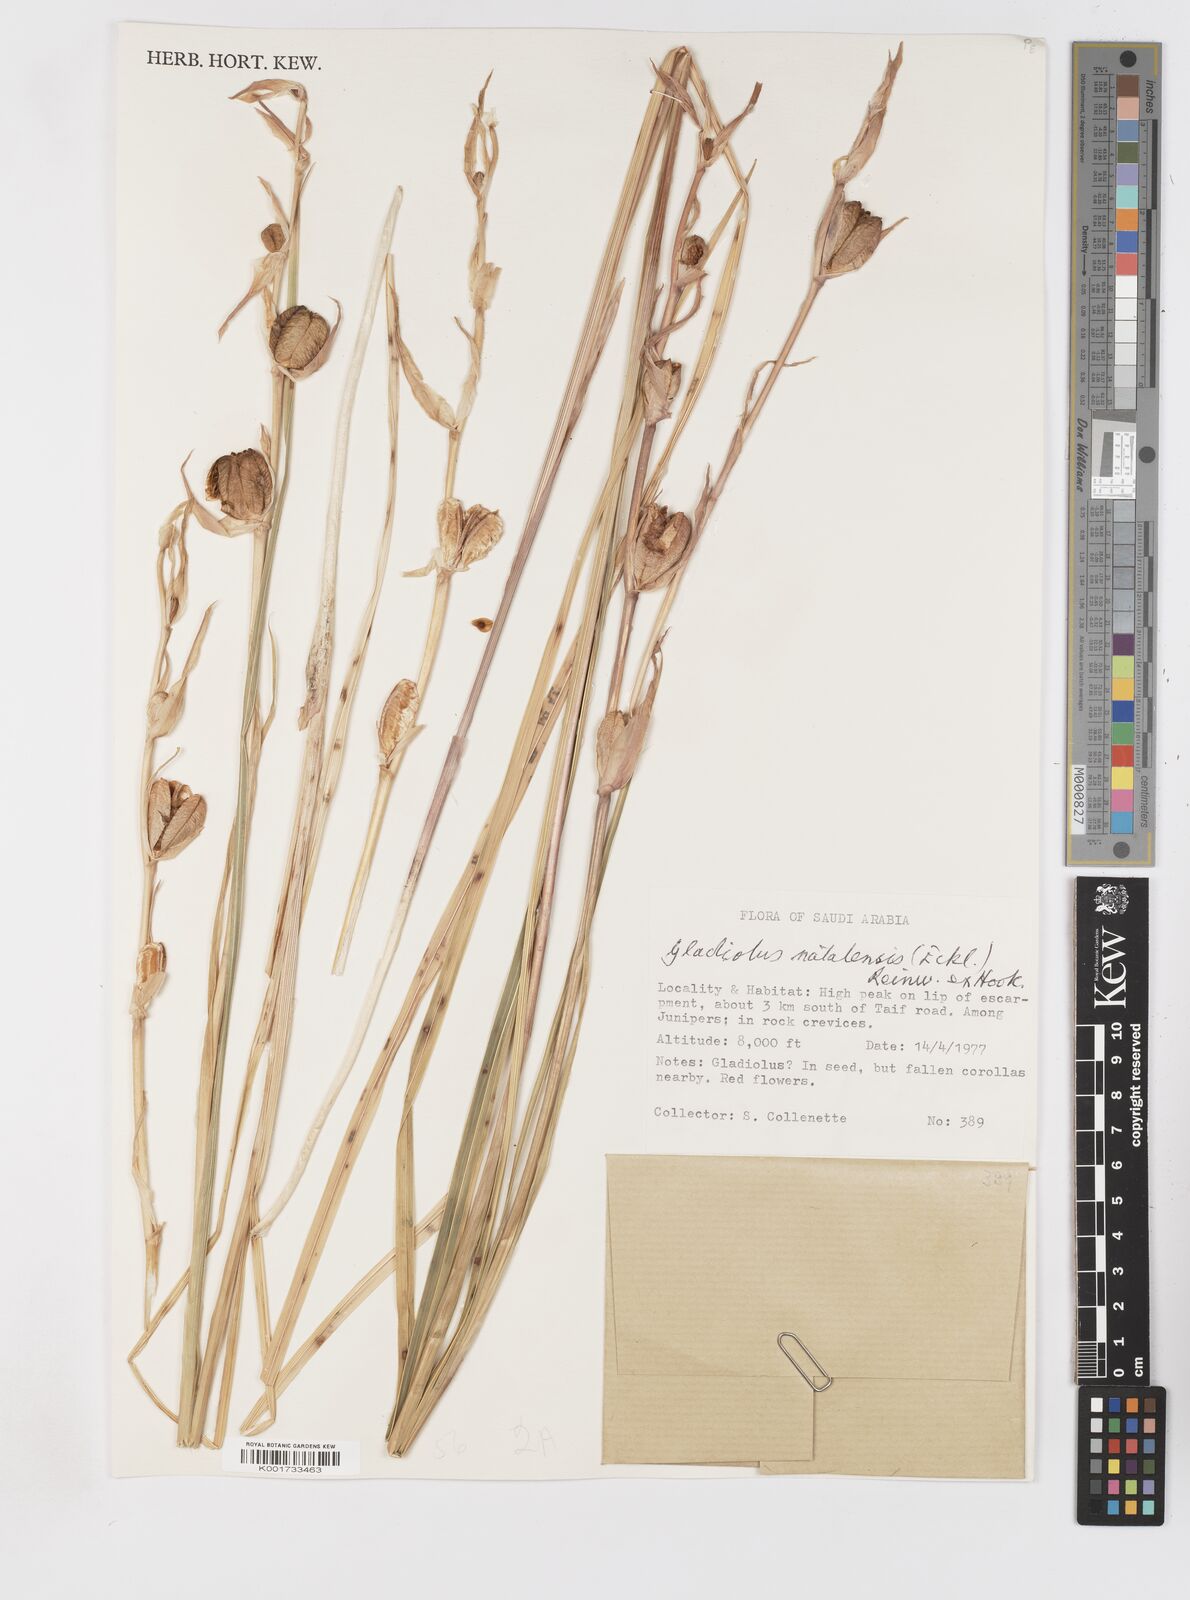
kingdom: Plantae
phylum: Tracheophyta
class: Liliopsida
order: Asparagales
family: Iridaceae
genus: Gladiolus
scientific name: Gladiolus dalenii
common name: Cornflag
